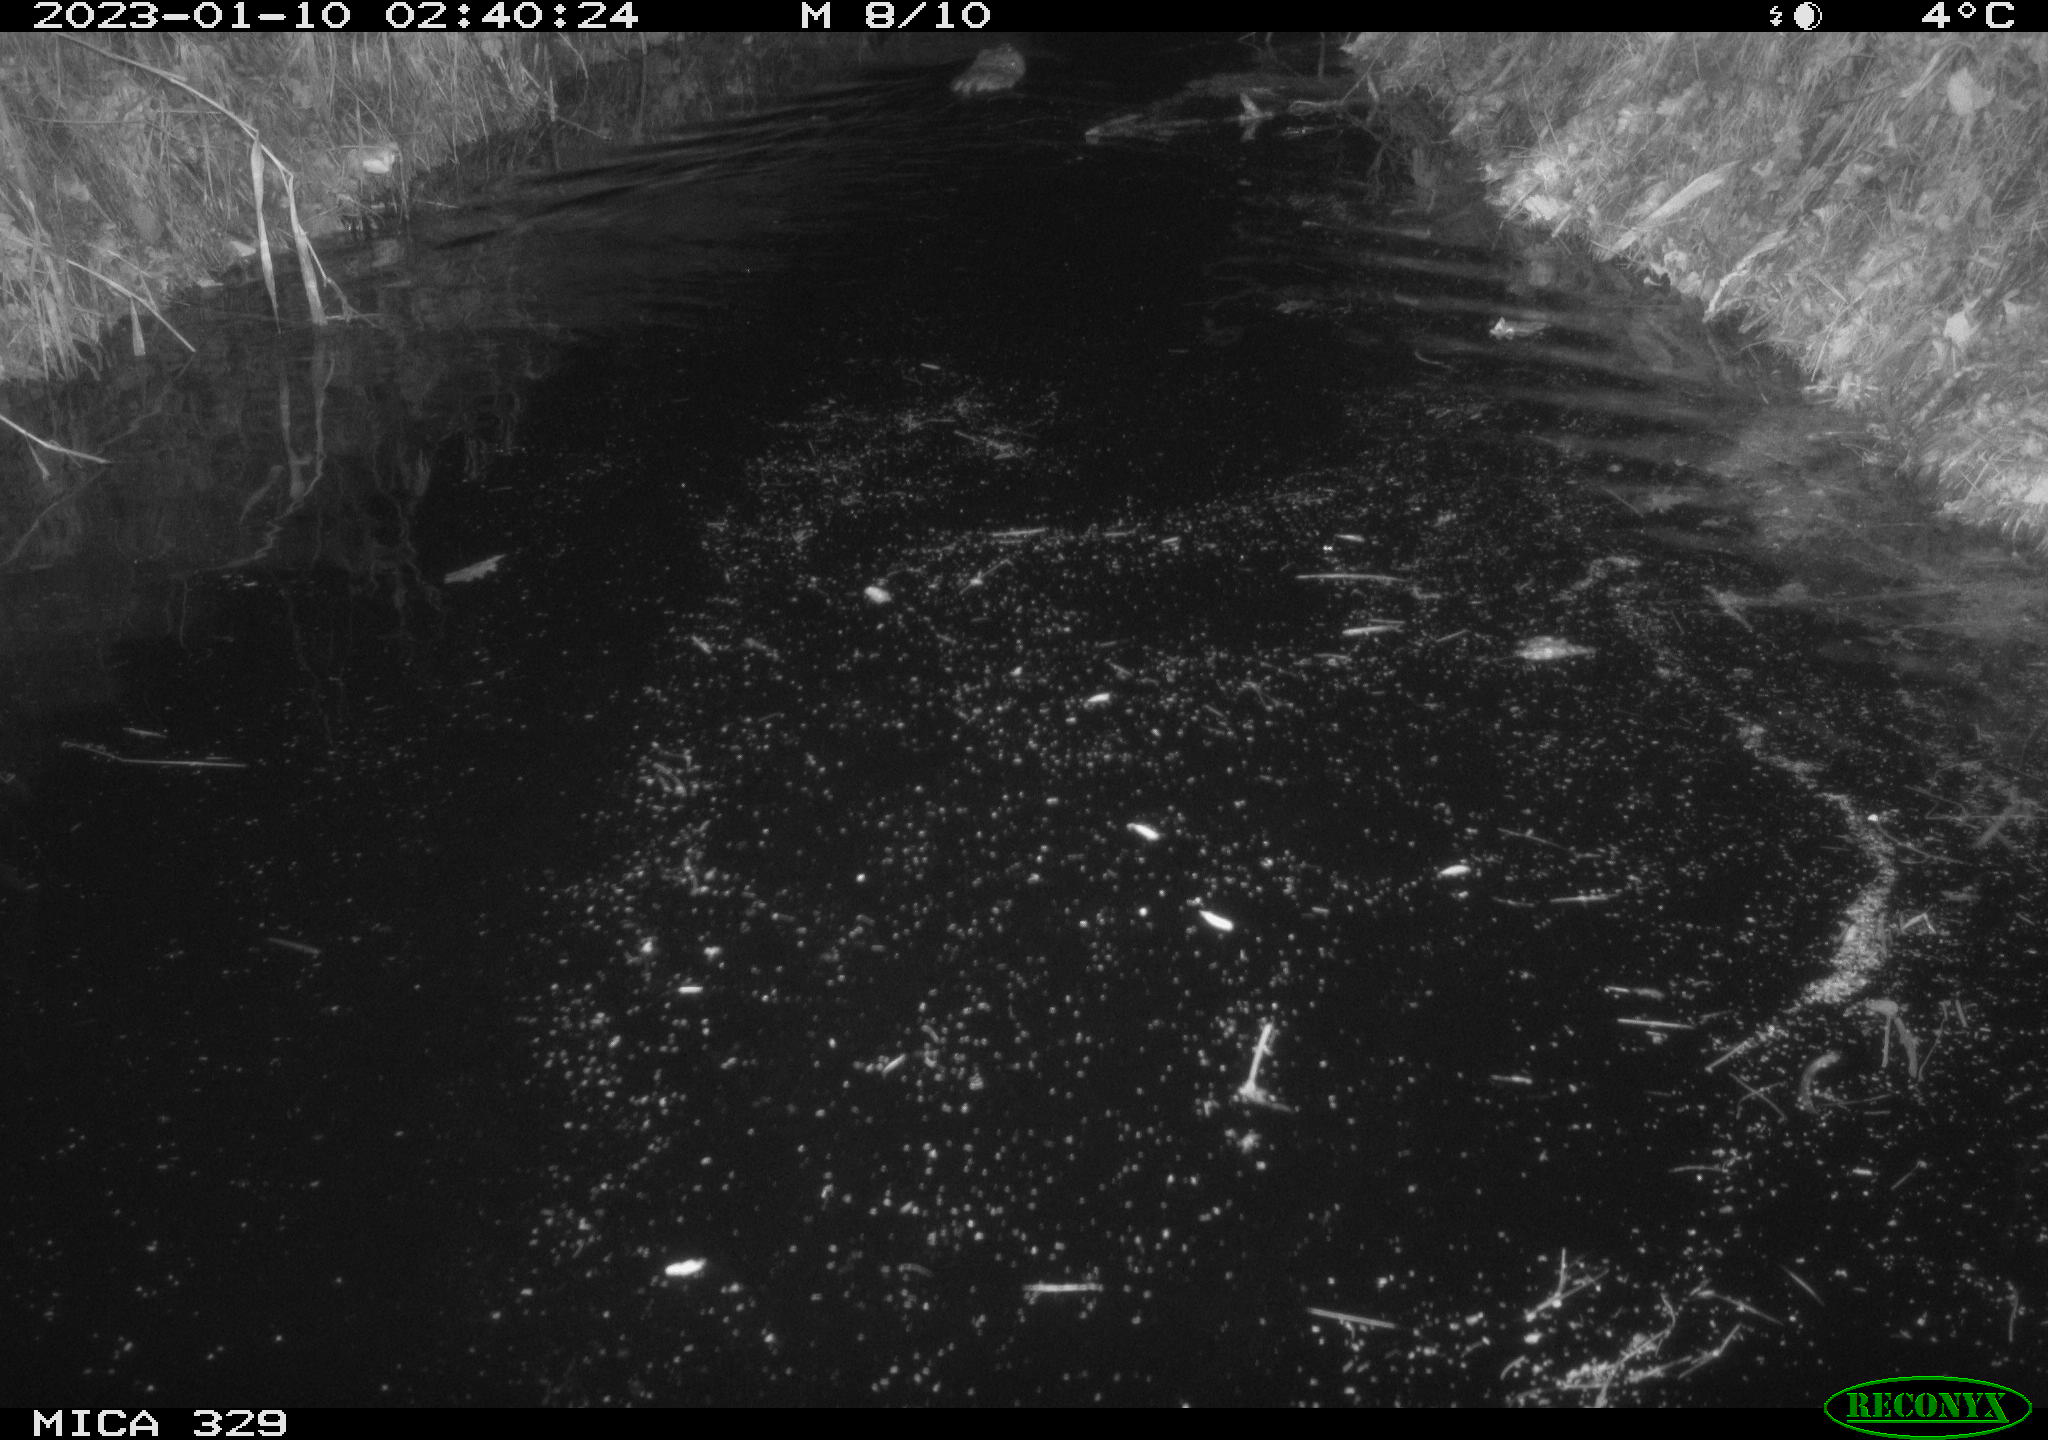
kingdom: Animalia
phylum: Chordata
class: Mammalia
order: Rodentia
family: Cricetidae
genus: Ondatra
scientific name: Ondatra zibethicus
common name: Muskrat
